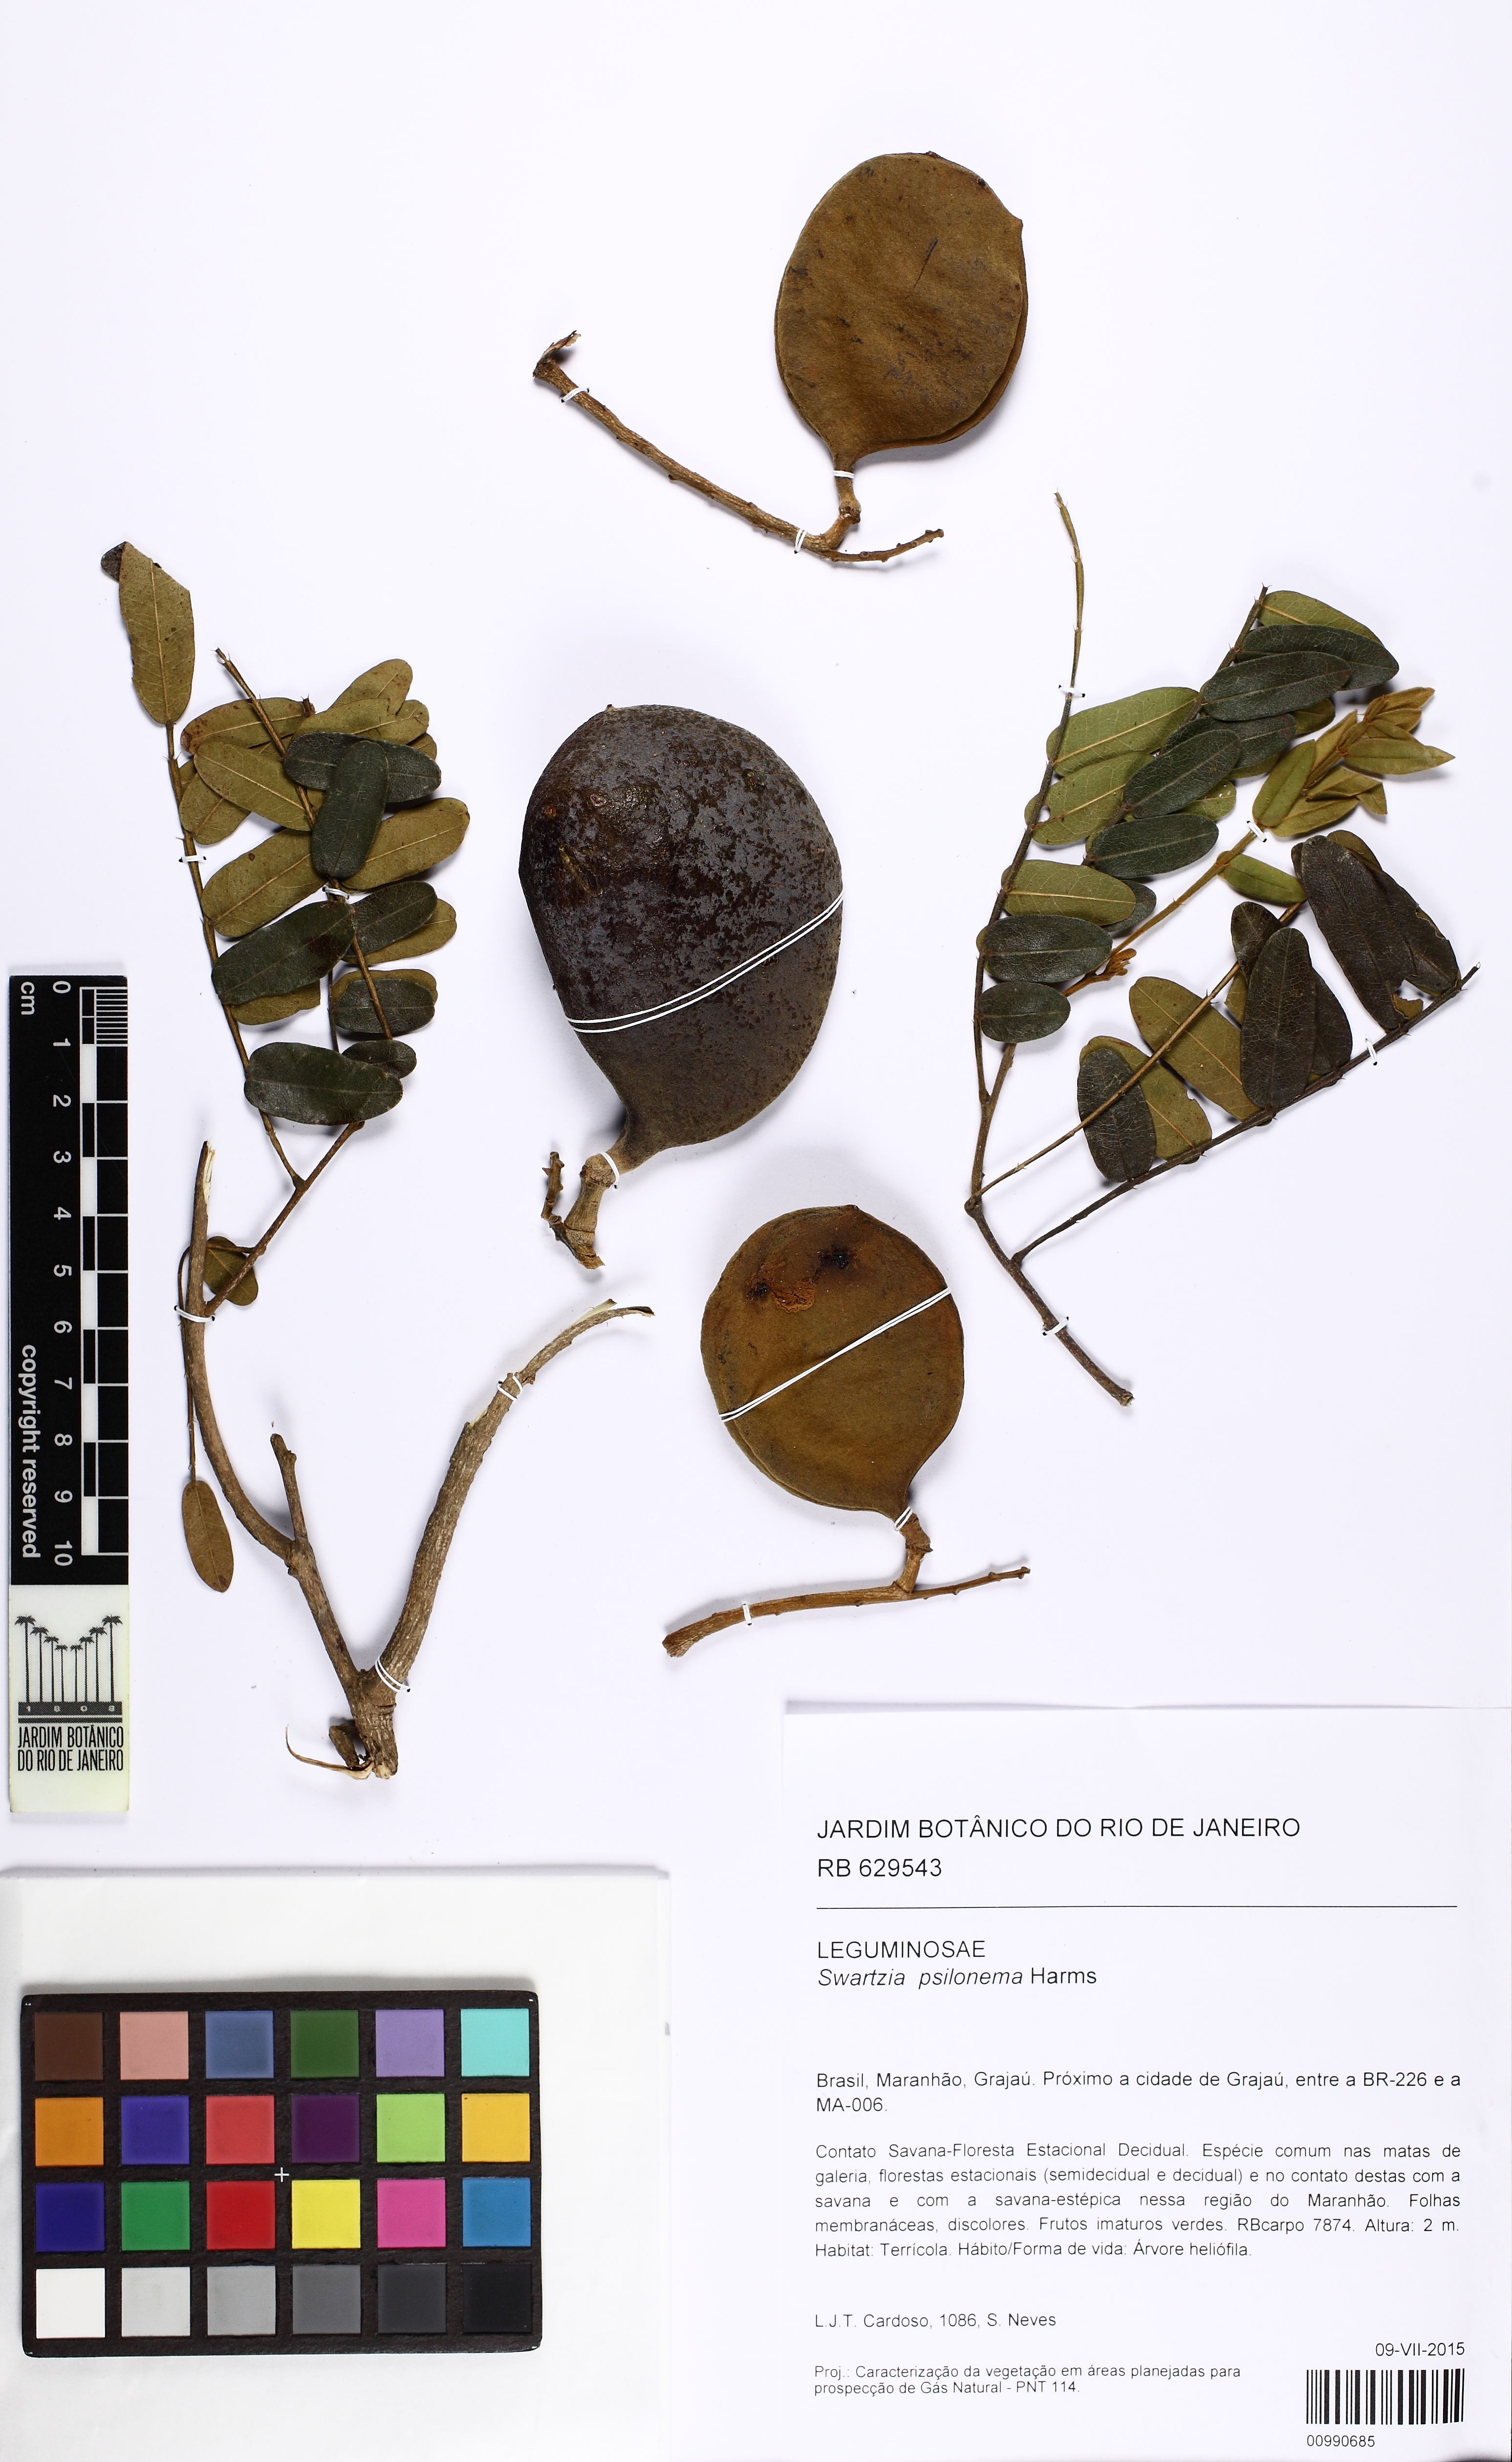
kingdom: Plantae
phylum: Tracheophyta
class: Magnoliopsida
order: Fabales
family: Fabaceae
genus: Swartzia
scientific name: Swartzia psilonema
